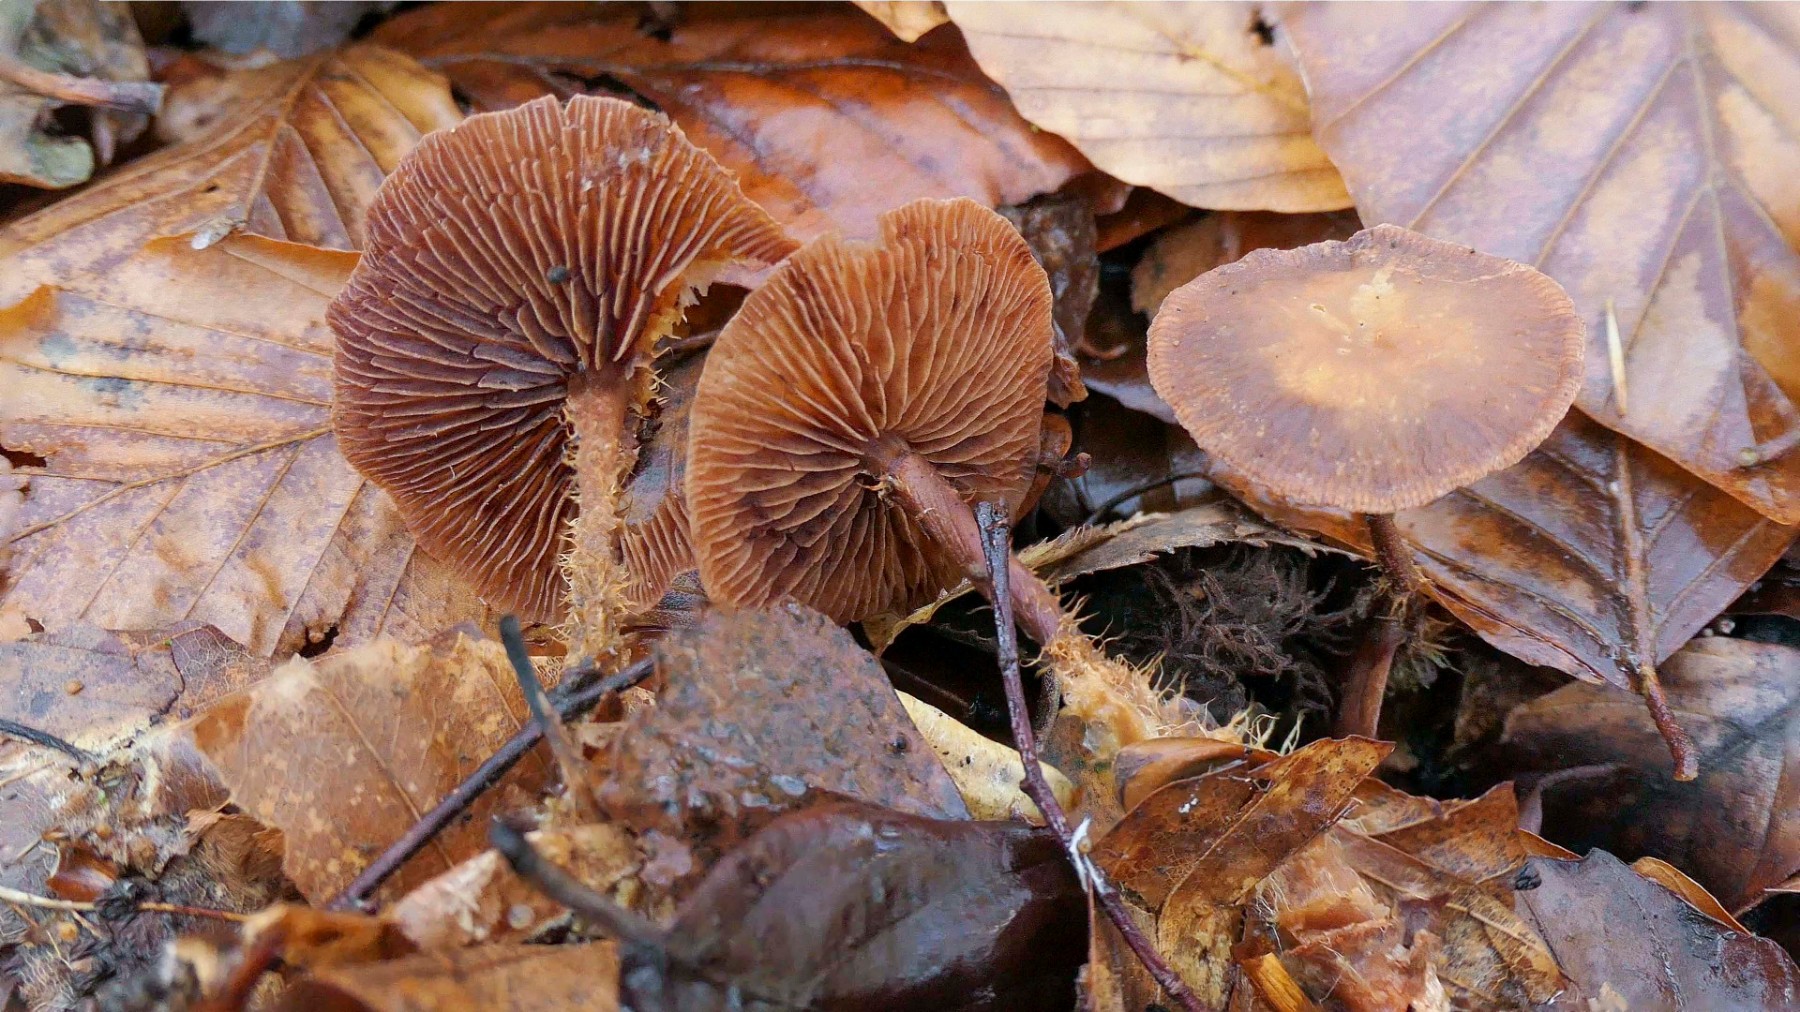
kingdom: Fungi
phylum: Basidiomycota
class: Agaricomycetes
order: Agaricales
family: Omphalotaceae
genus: Gymnopus
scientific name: Gymnopus fuscopurpureus
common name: purpurbrun fladhat
